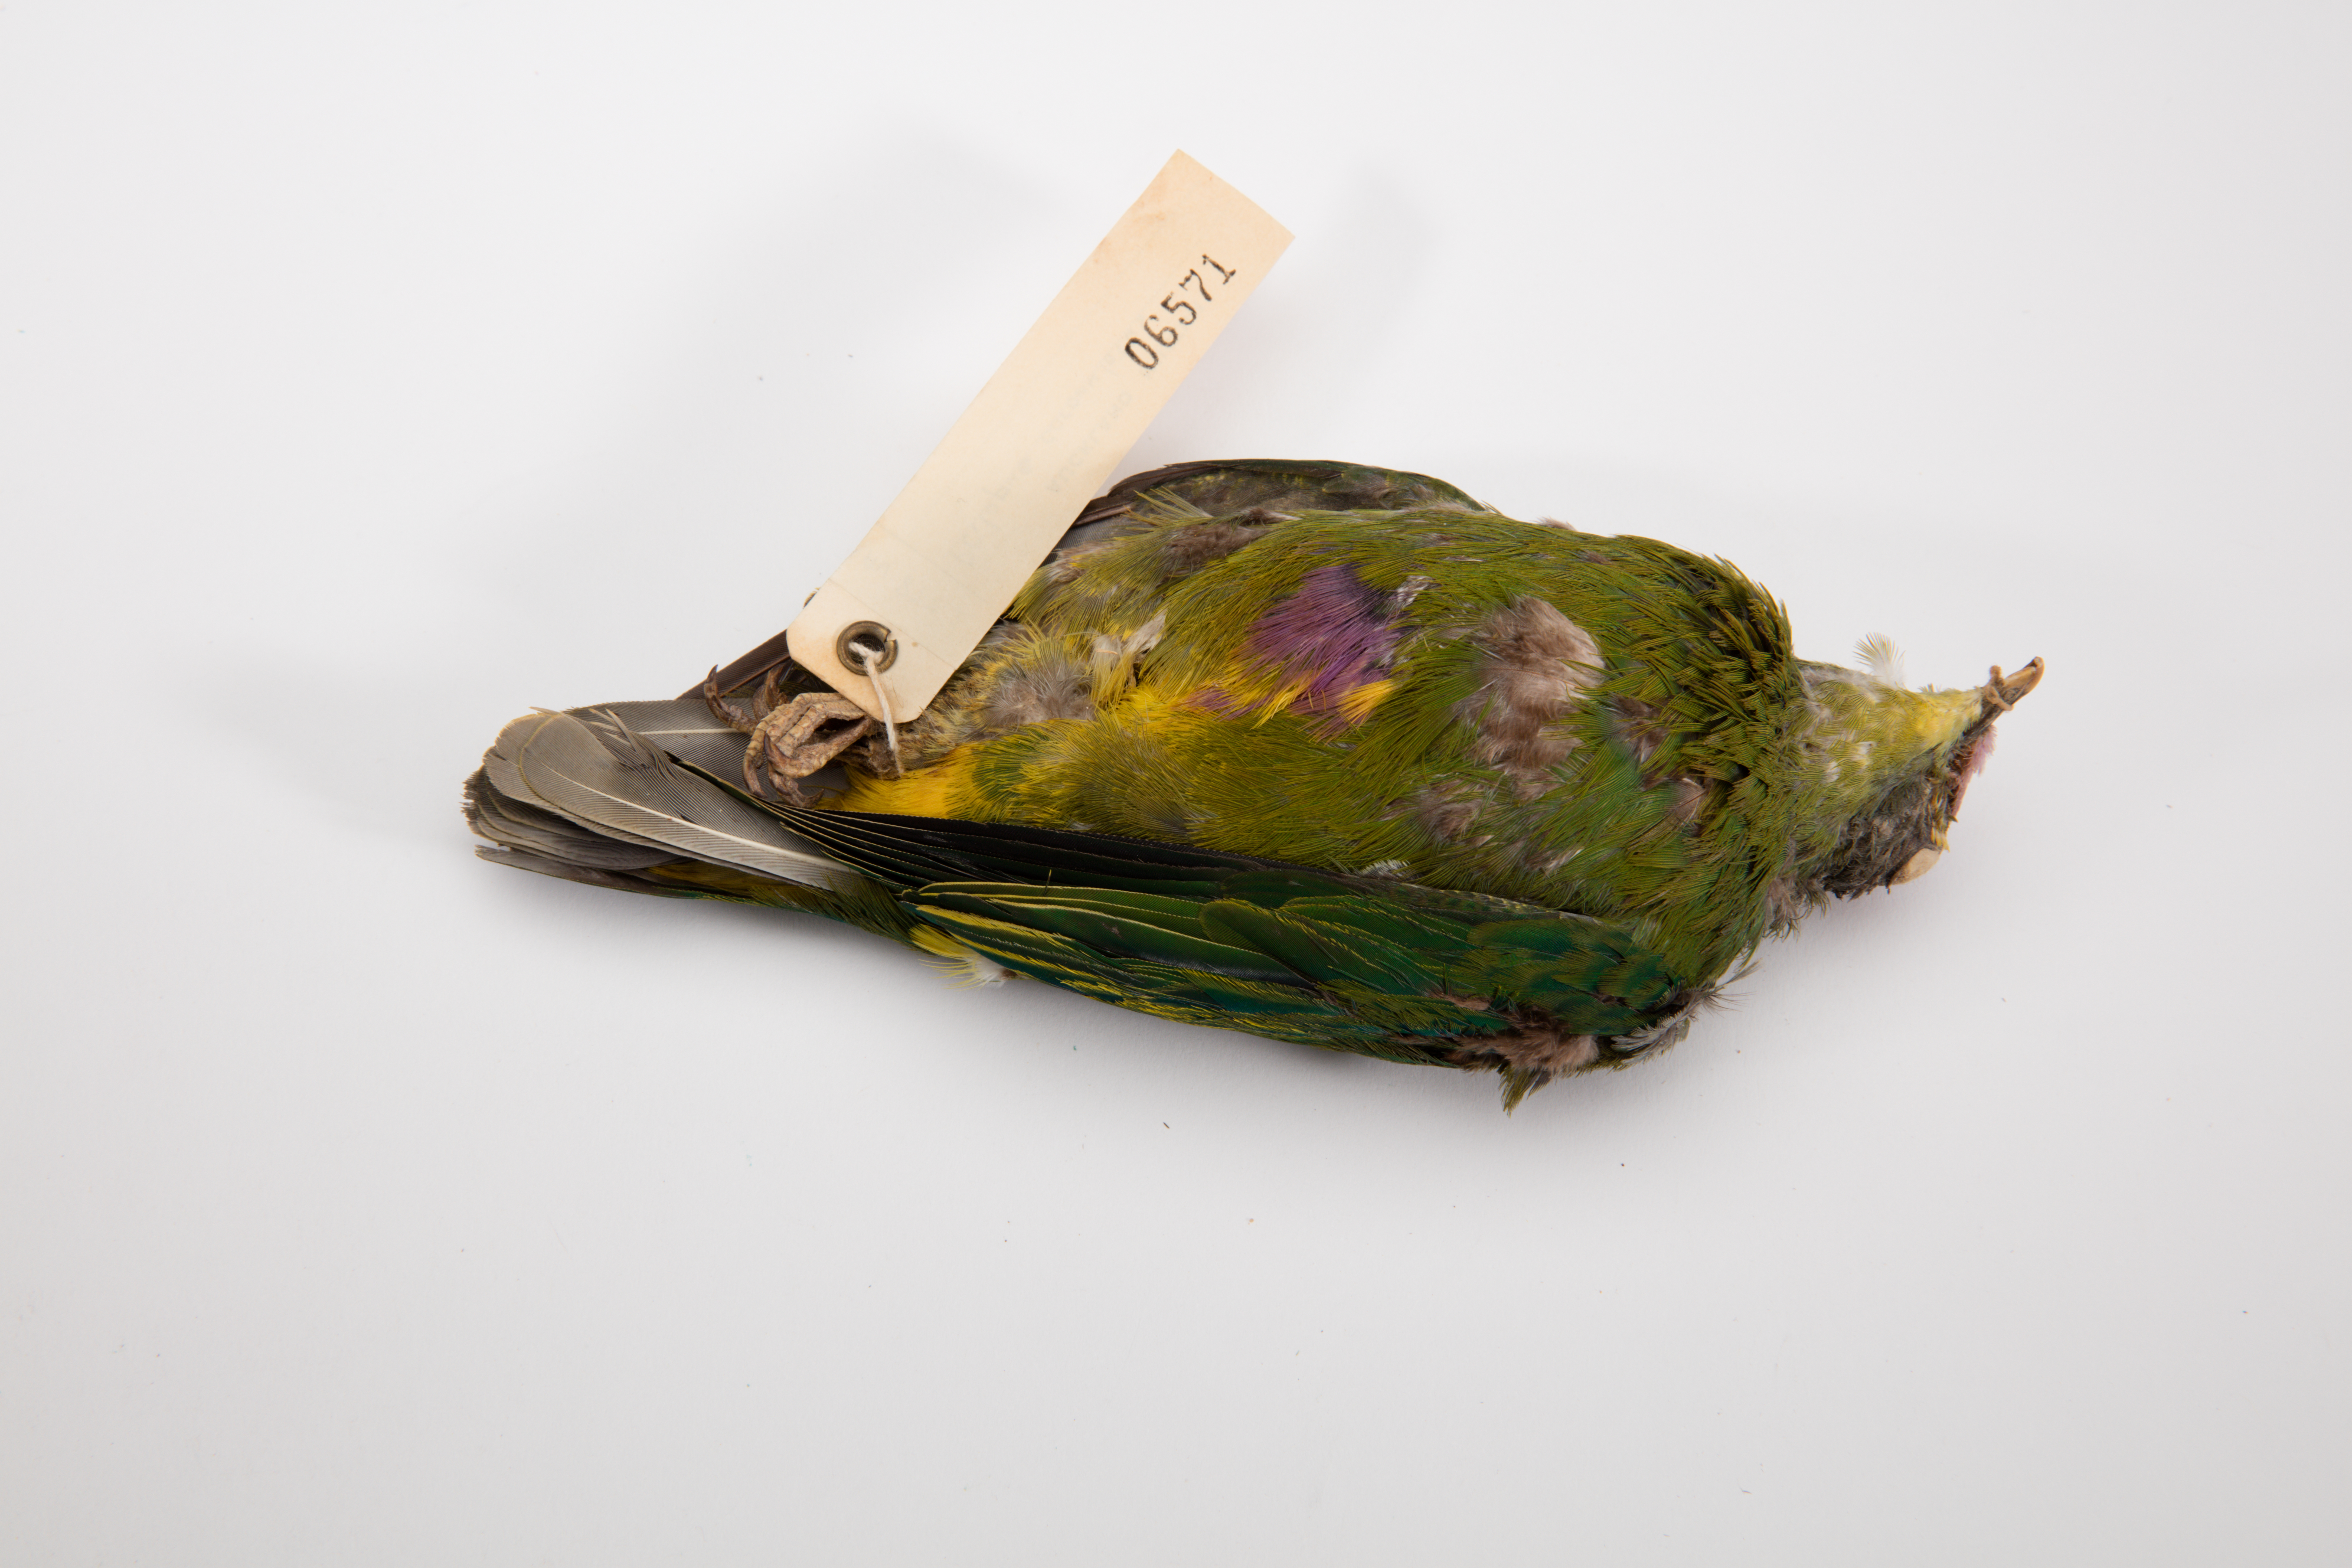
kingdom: Animalia
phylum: Chordata
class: Aves
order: Columbiformes
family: Columbidae
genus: Ptilinopus
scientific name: Ptilinopus coronulatus
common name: Coroneted fruit dove
